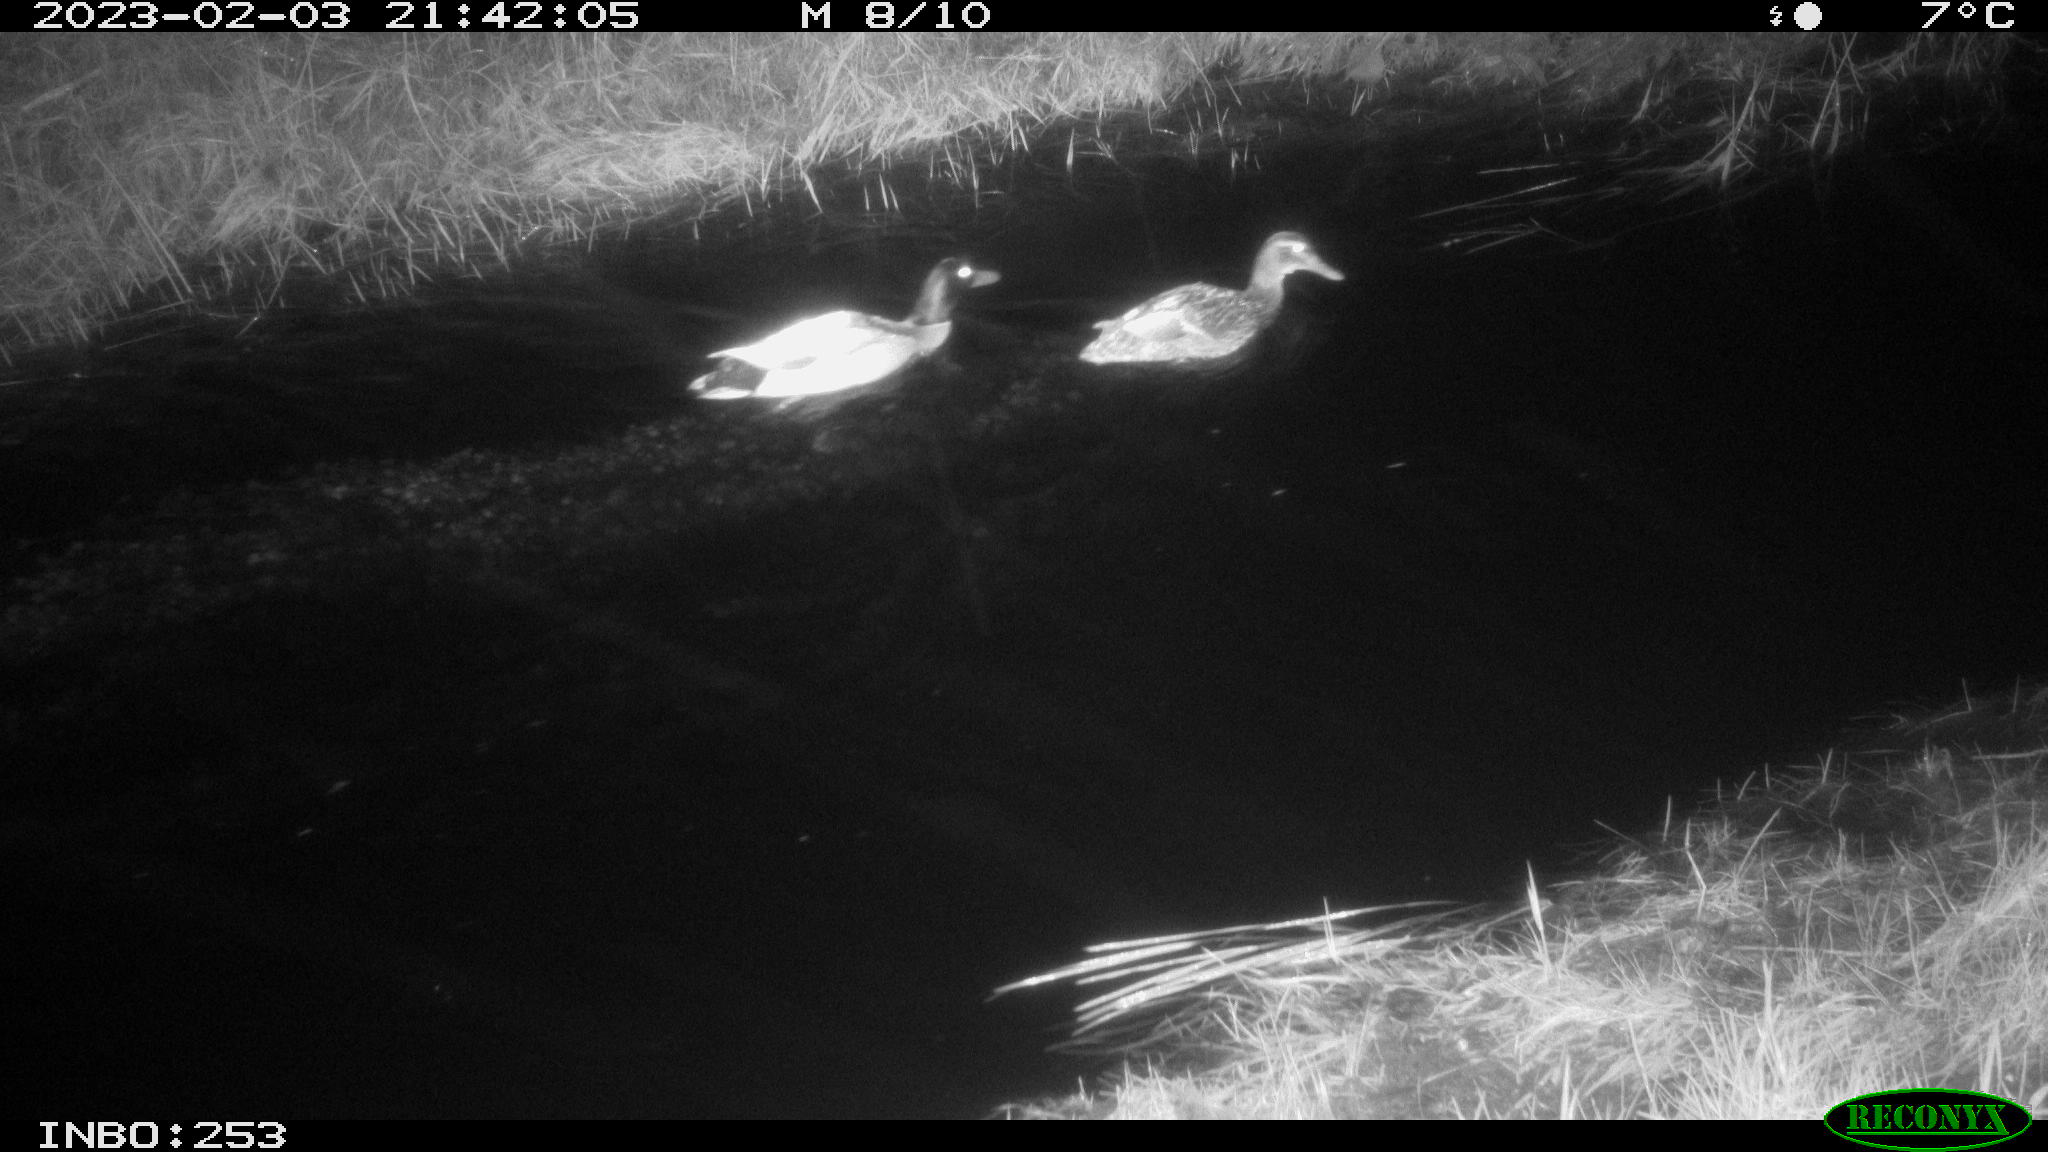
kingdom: Animalia
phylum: Chordata
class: Aves
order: Anseriformes
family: Anatidae
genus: Anas
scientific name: Anas
